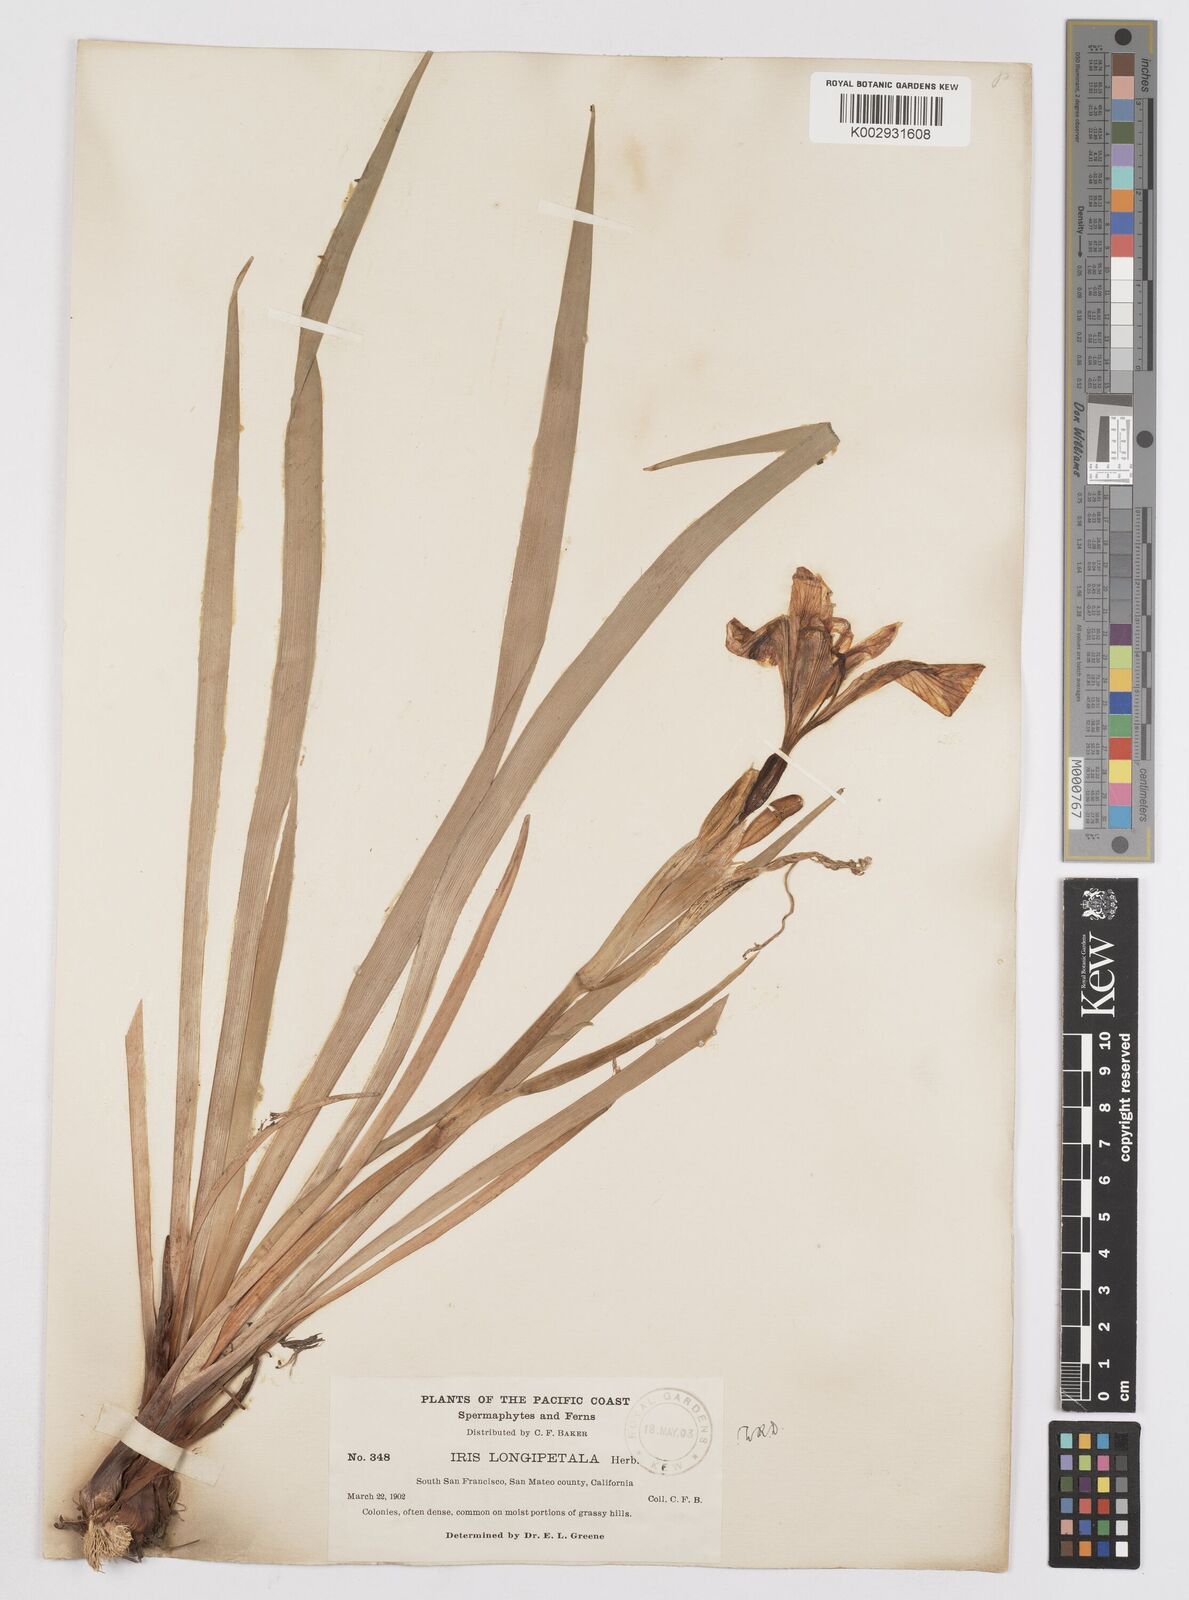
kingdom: Plantae
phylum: Tracheophyta
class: Liliopsida
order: Asparagales
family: Iridaceae
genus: Iris
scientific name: Iris longipetala
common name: Long-petal iris
